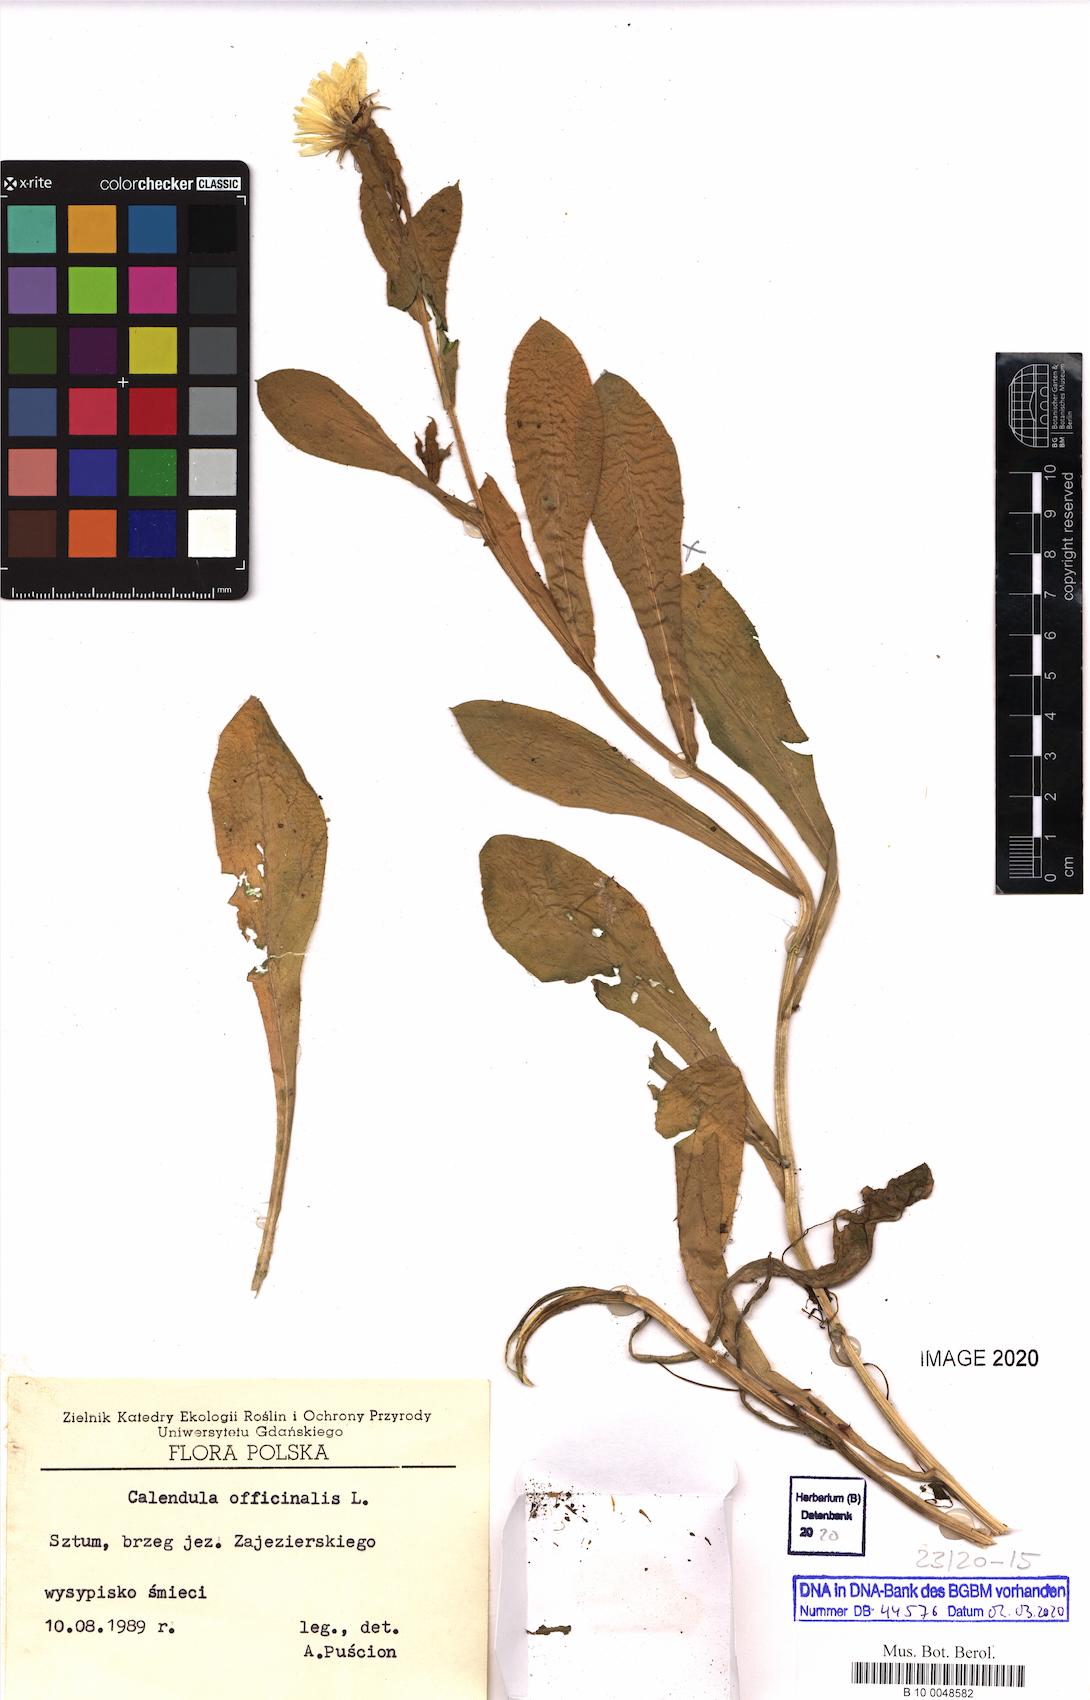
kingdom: Plantae
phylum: Tracheophyta
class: Magnoliopsida
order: Asterales
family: Asteraceae
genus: Calendula
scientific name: Calendula officinalis
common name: Pot marigold
